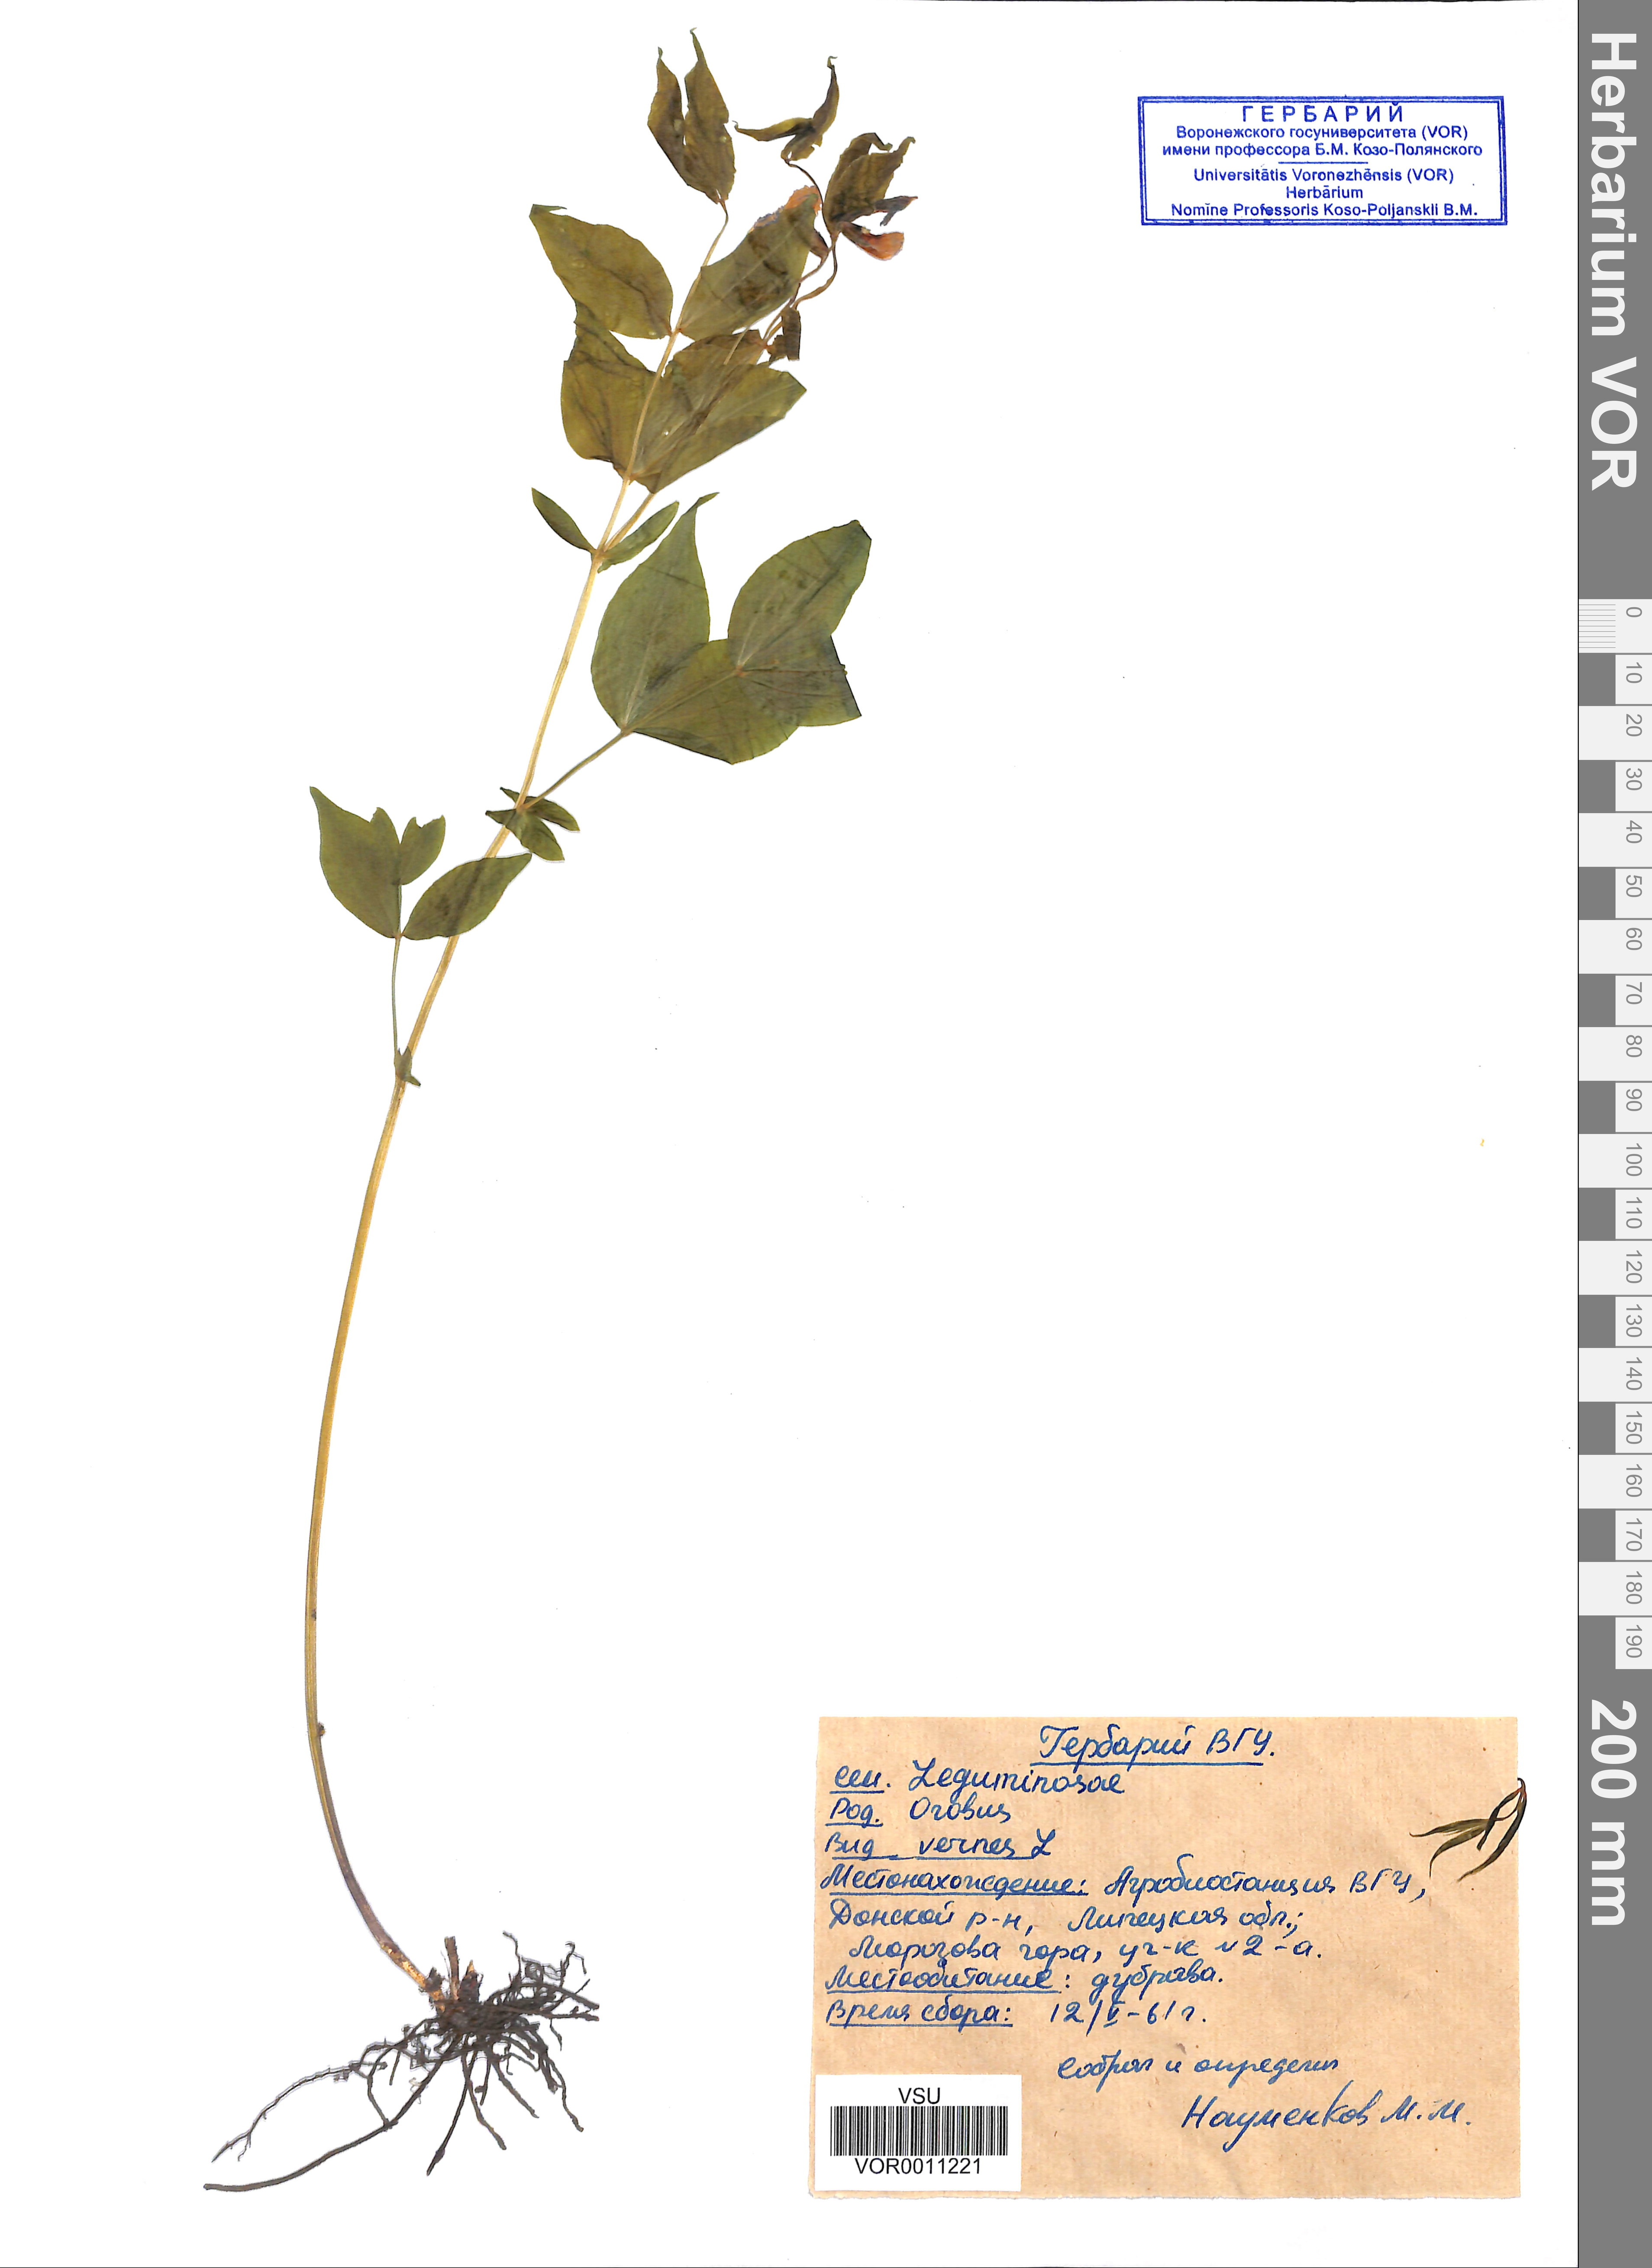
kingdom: Plantae
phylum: Tracheophyta
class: Magnoliopsida
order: Fabales
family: Fabaceae
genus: Lathyrus
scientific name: Lathyrus vernus
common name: Spring pea
